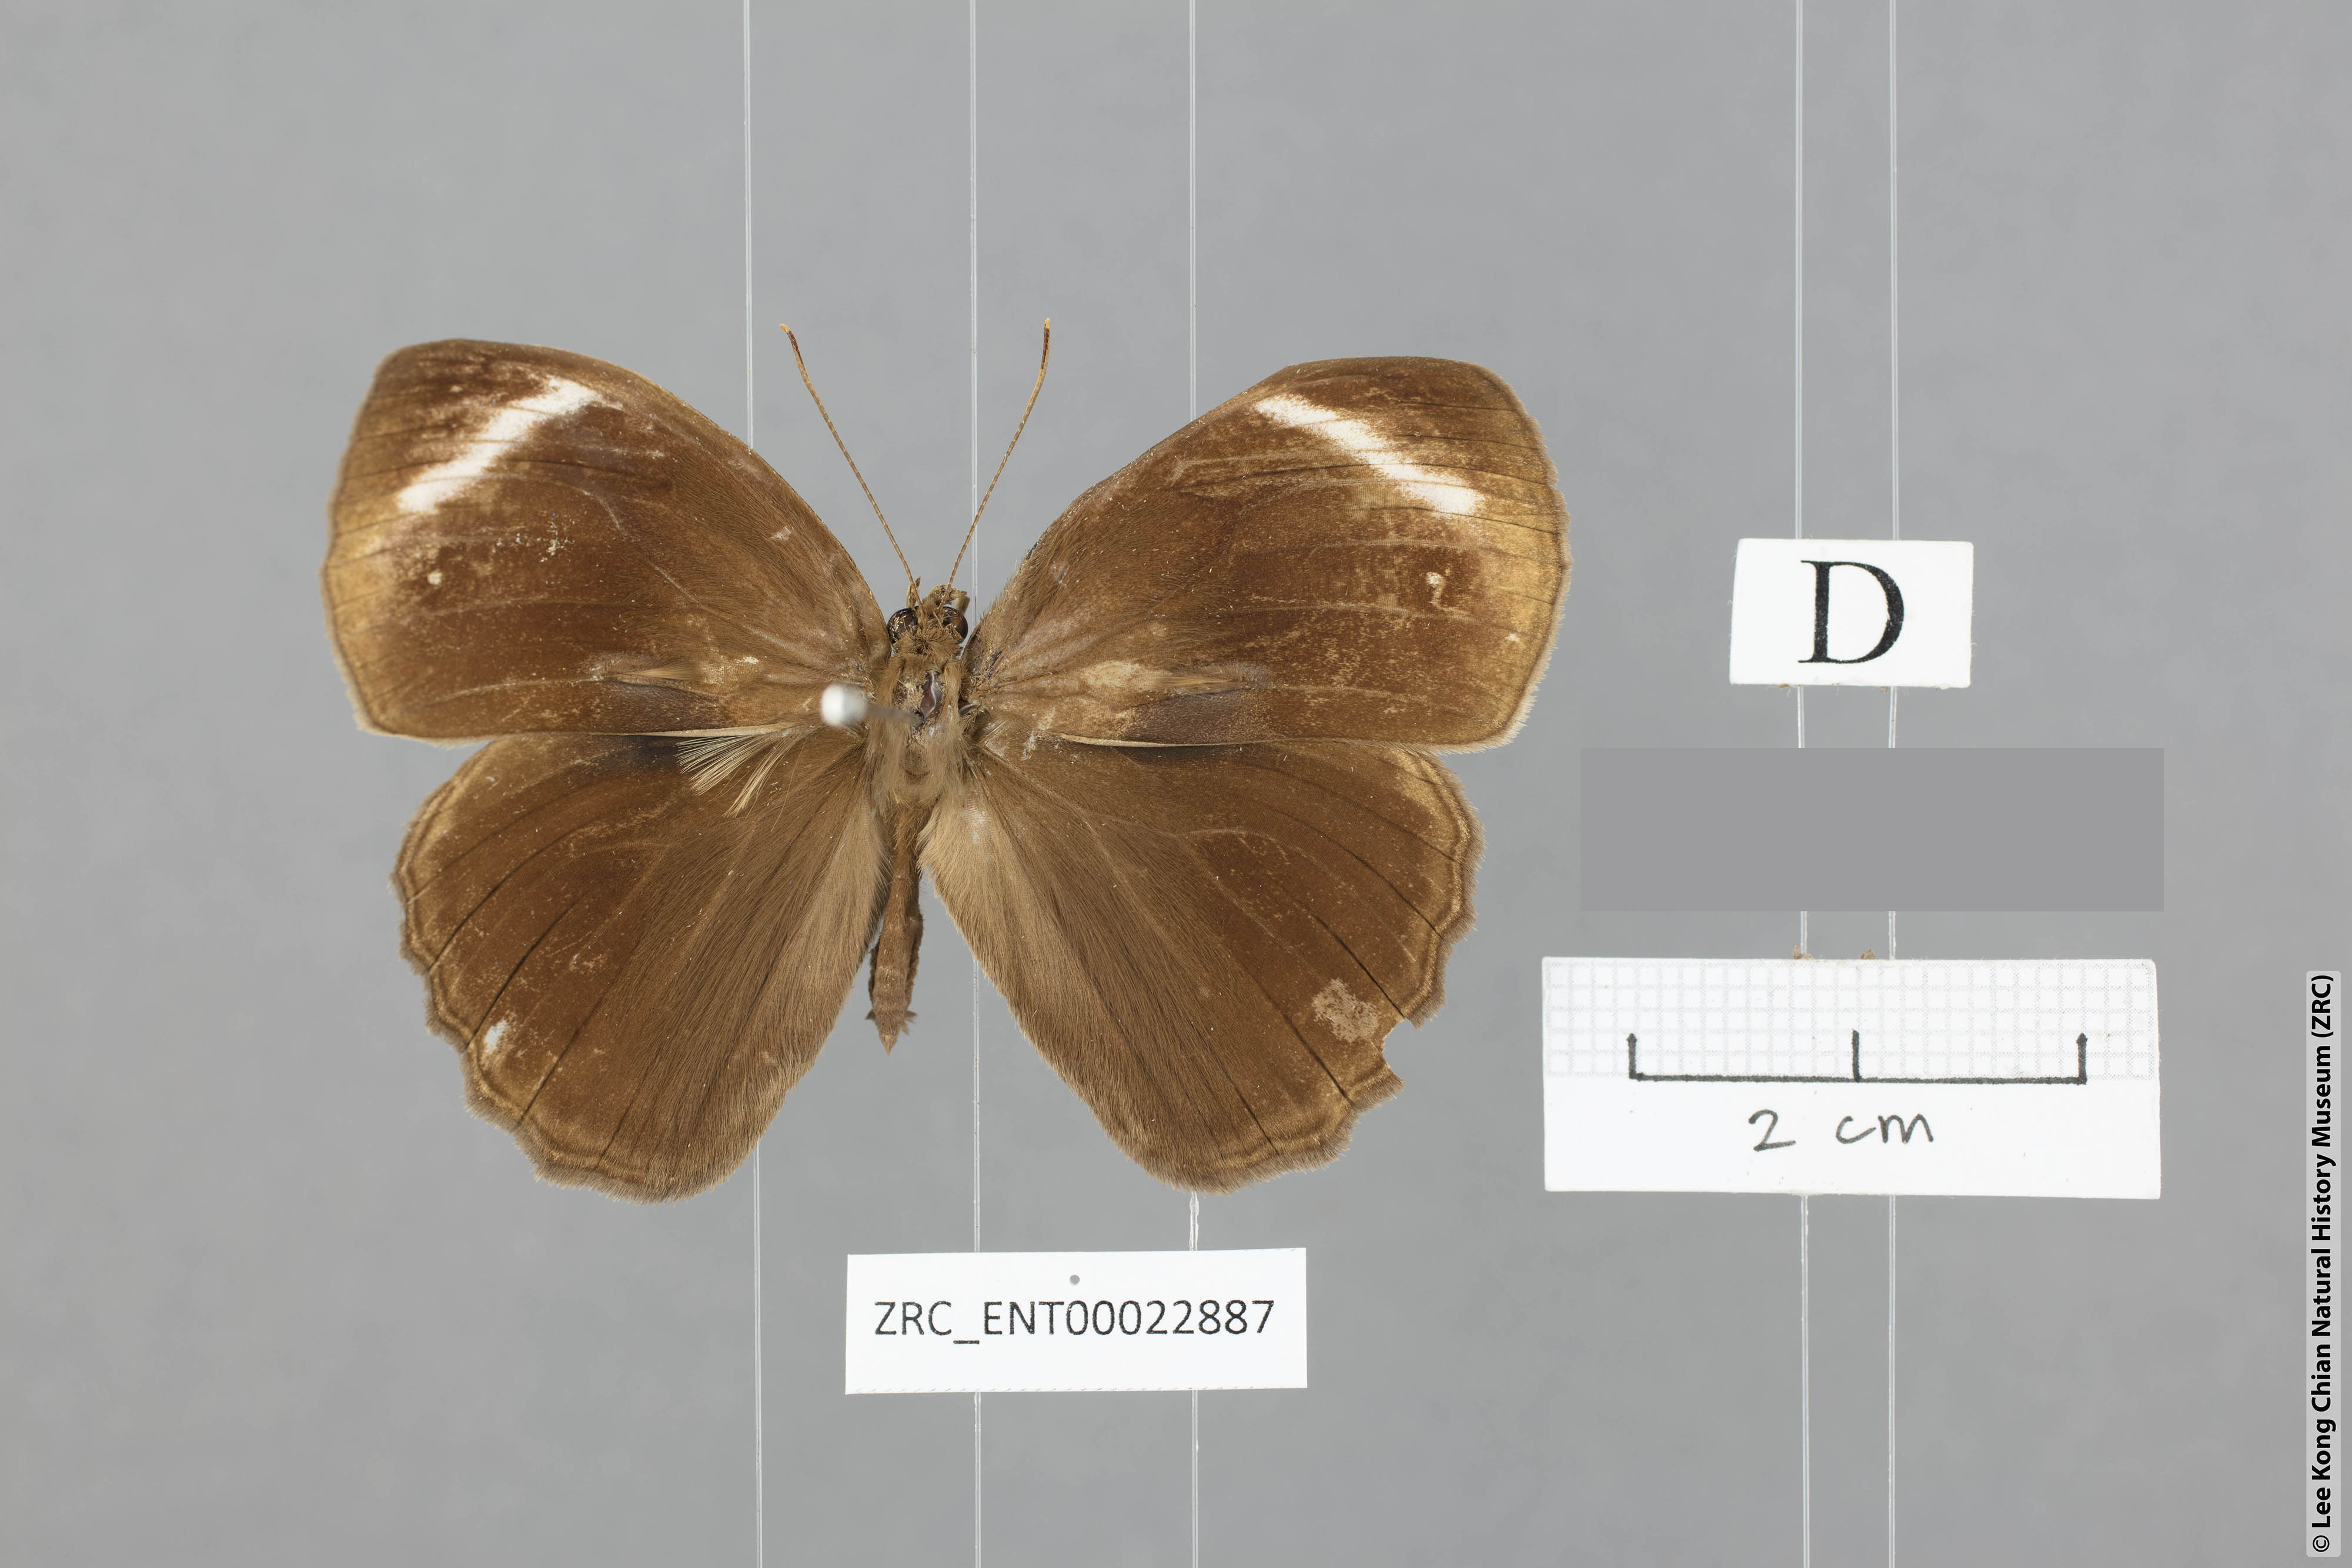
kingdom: Animalia
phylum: Arthropoda
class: Insecta
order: Lepidoptera
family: Nymphalidae
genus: Mycalesis
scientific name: Mycalesis anaxioides
